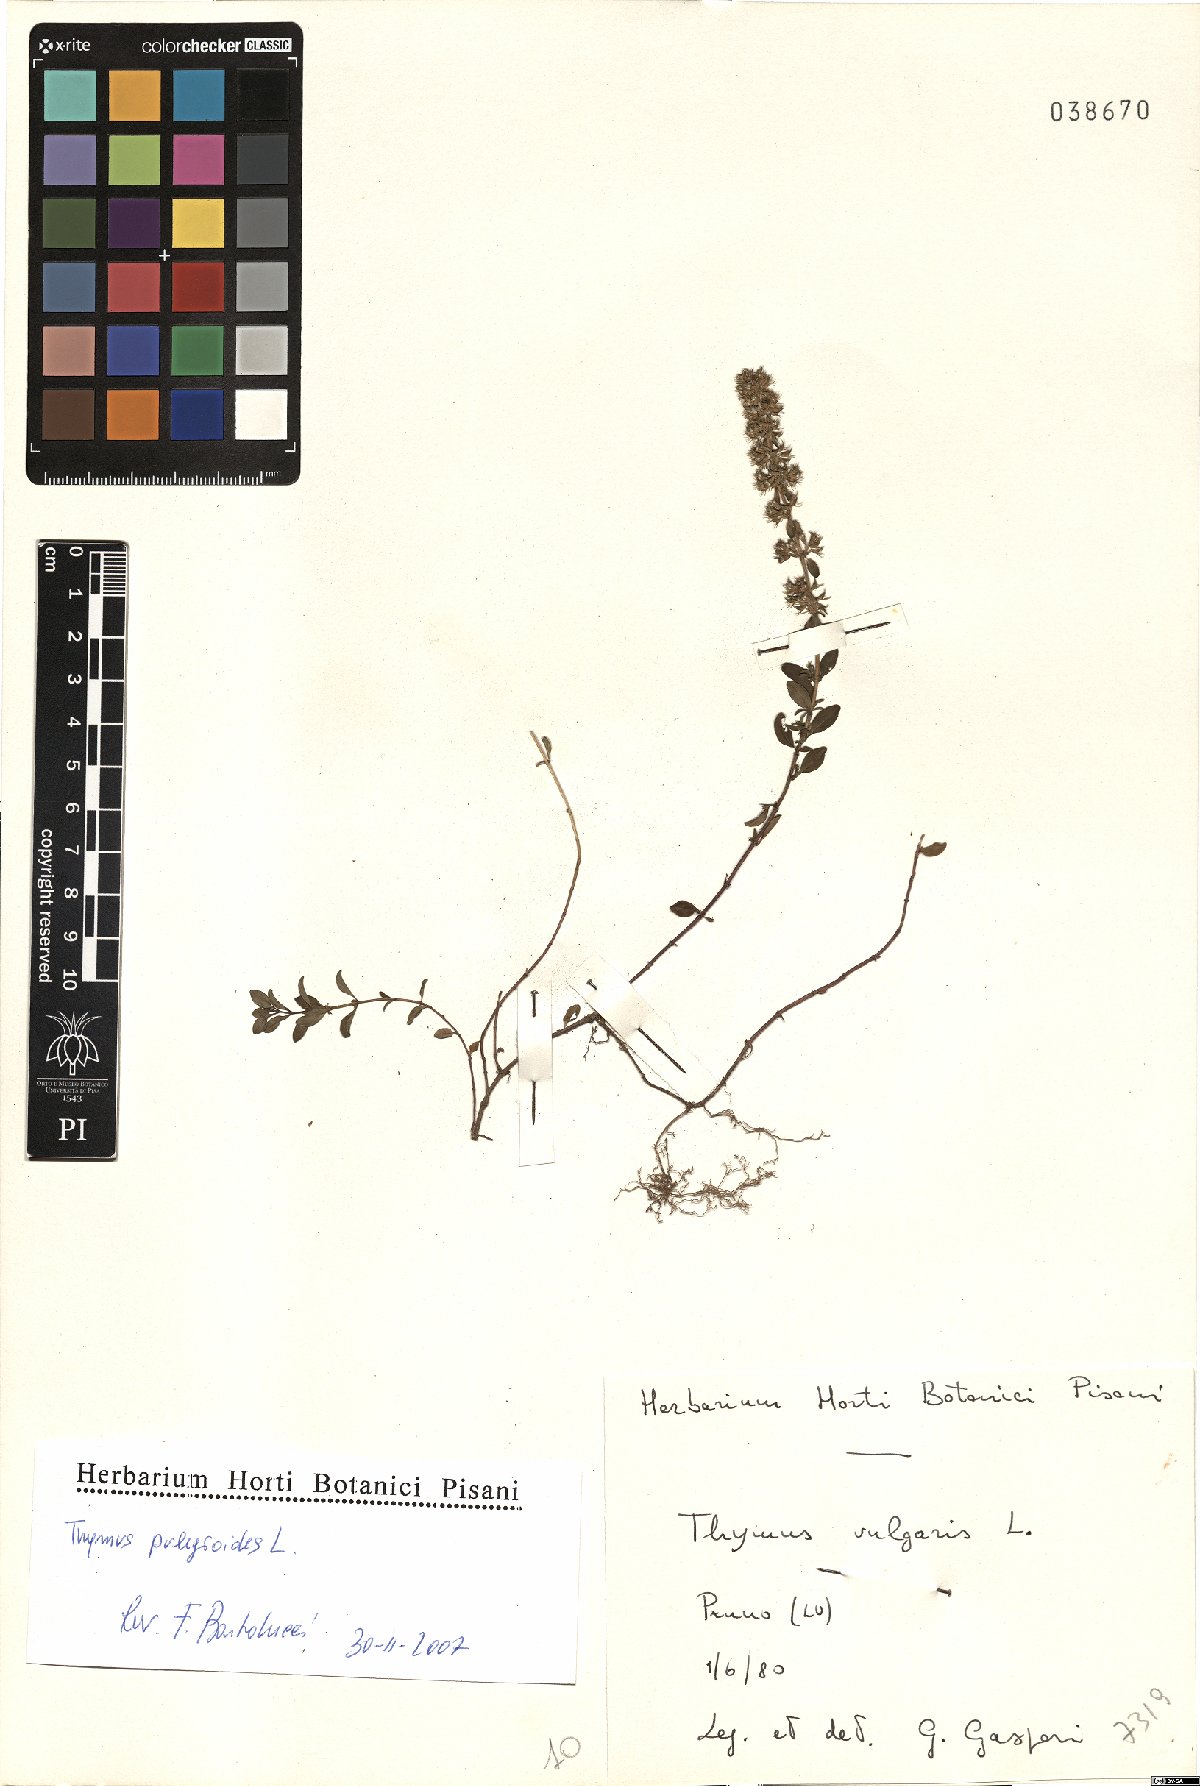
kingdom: Plantae
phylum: Tracheophyta
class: Magnoliopsida
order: Lamiales
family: Lamiaceae
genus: Thymus
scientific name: Thymus vulgaris
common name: Garden thyme
